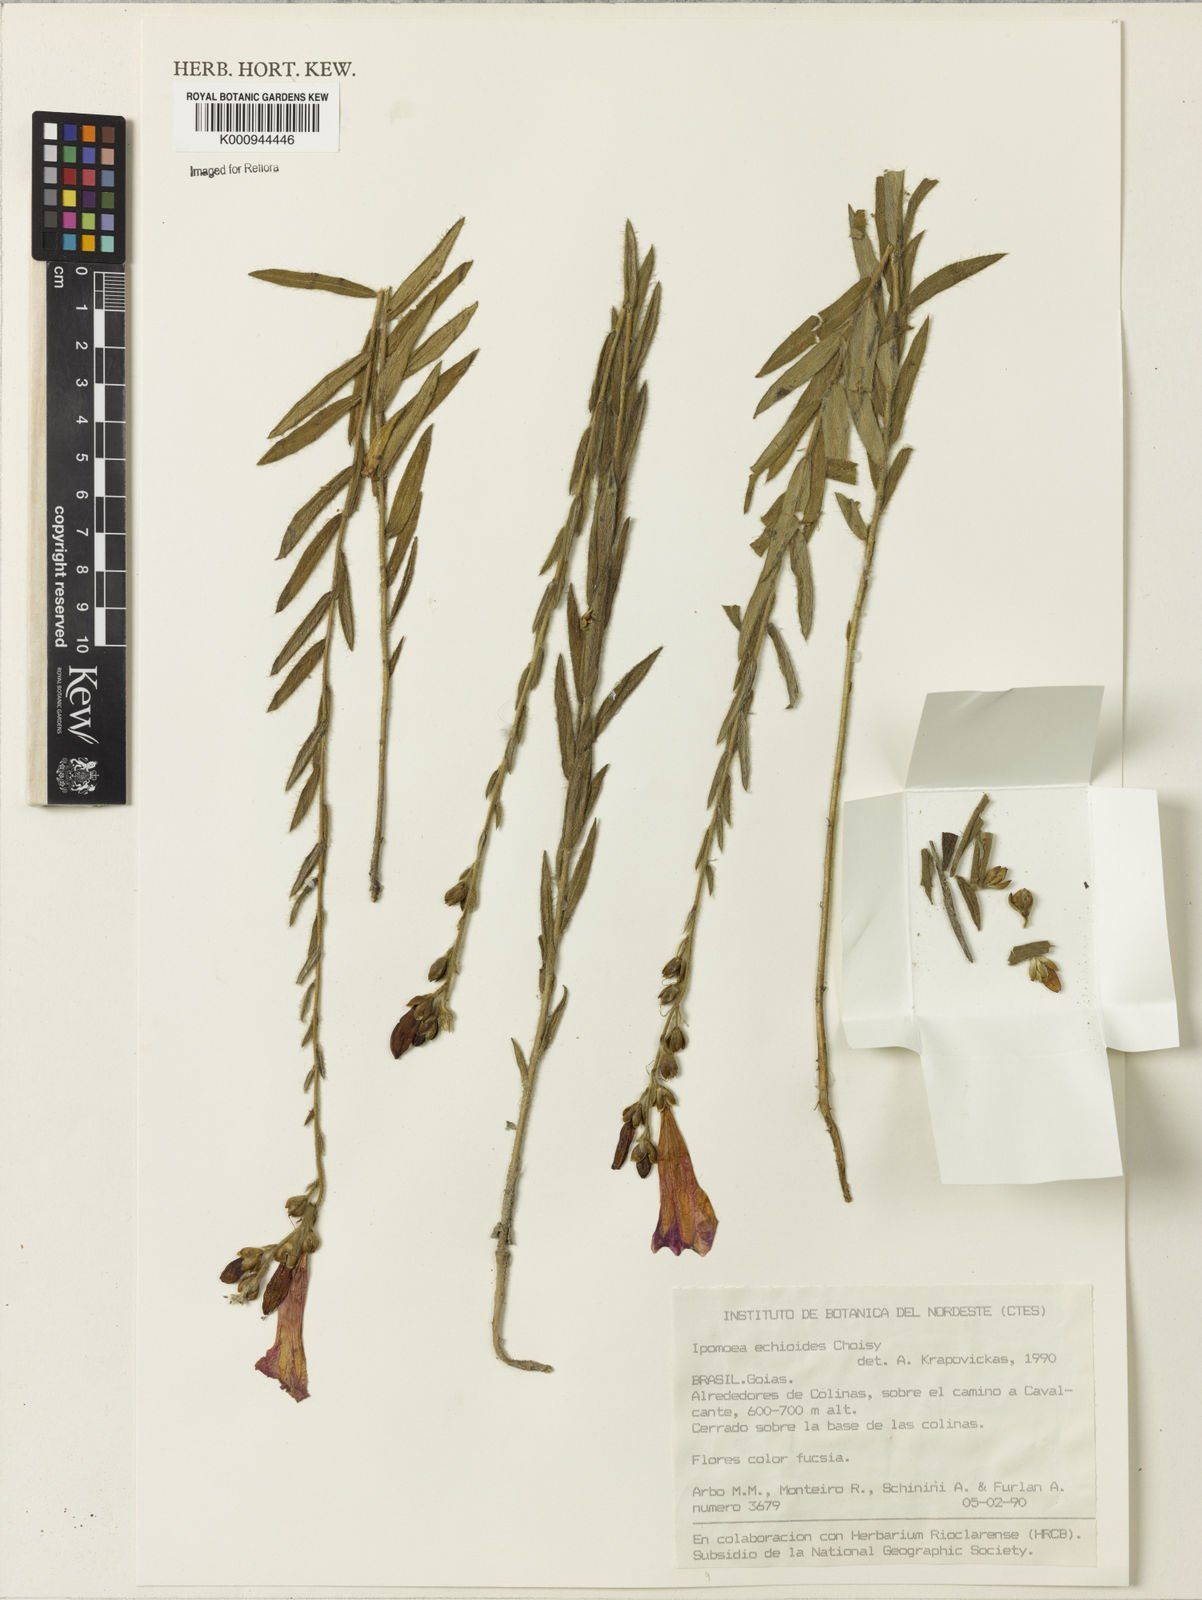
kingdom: Plantae
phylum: Tracheophyta
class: Magnoliopsida
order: Solanales
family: Convolvulaceae
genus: Ipomoea
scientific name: Ipomoea paulistana
